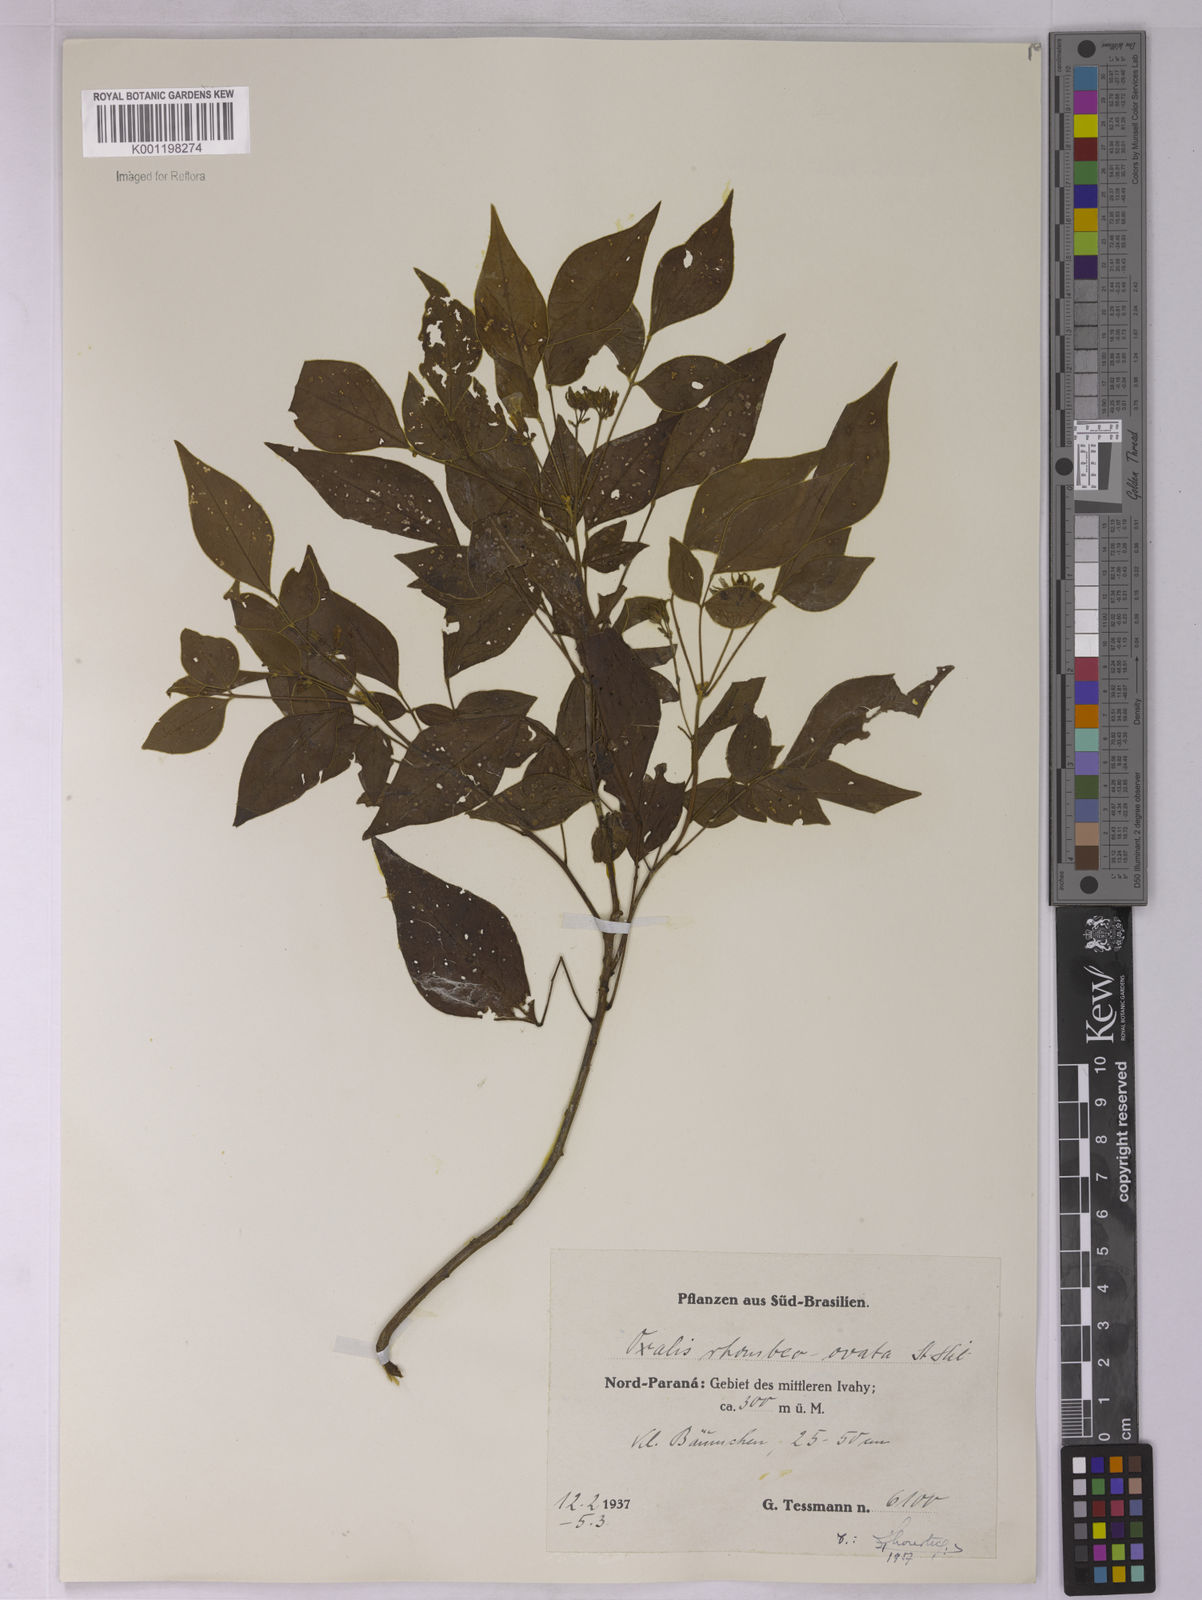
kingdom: Plantae
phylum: Tracheophyta
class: Magnoliopsida
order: Oxalidales
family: Oxalidaceae
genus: Oxalis
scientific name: Oxalis rhombeo-ovata
